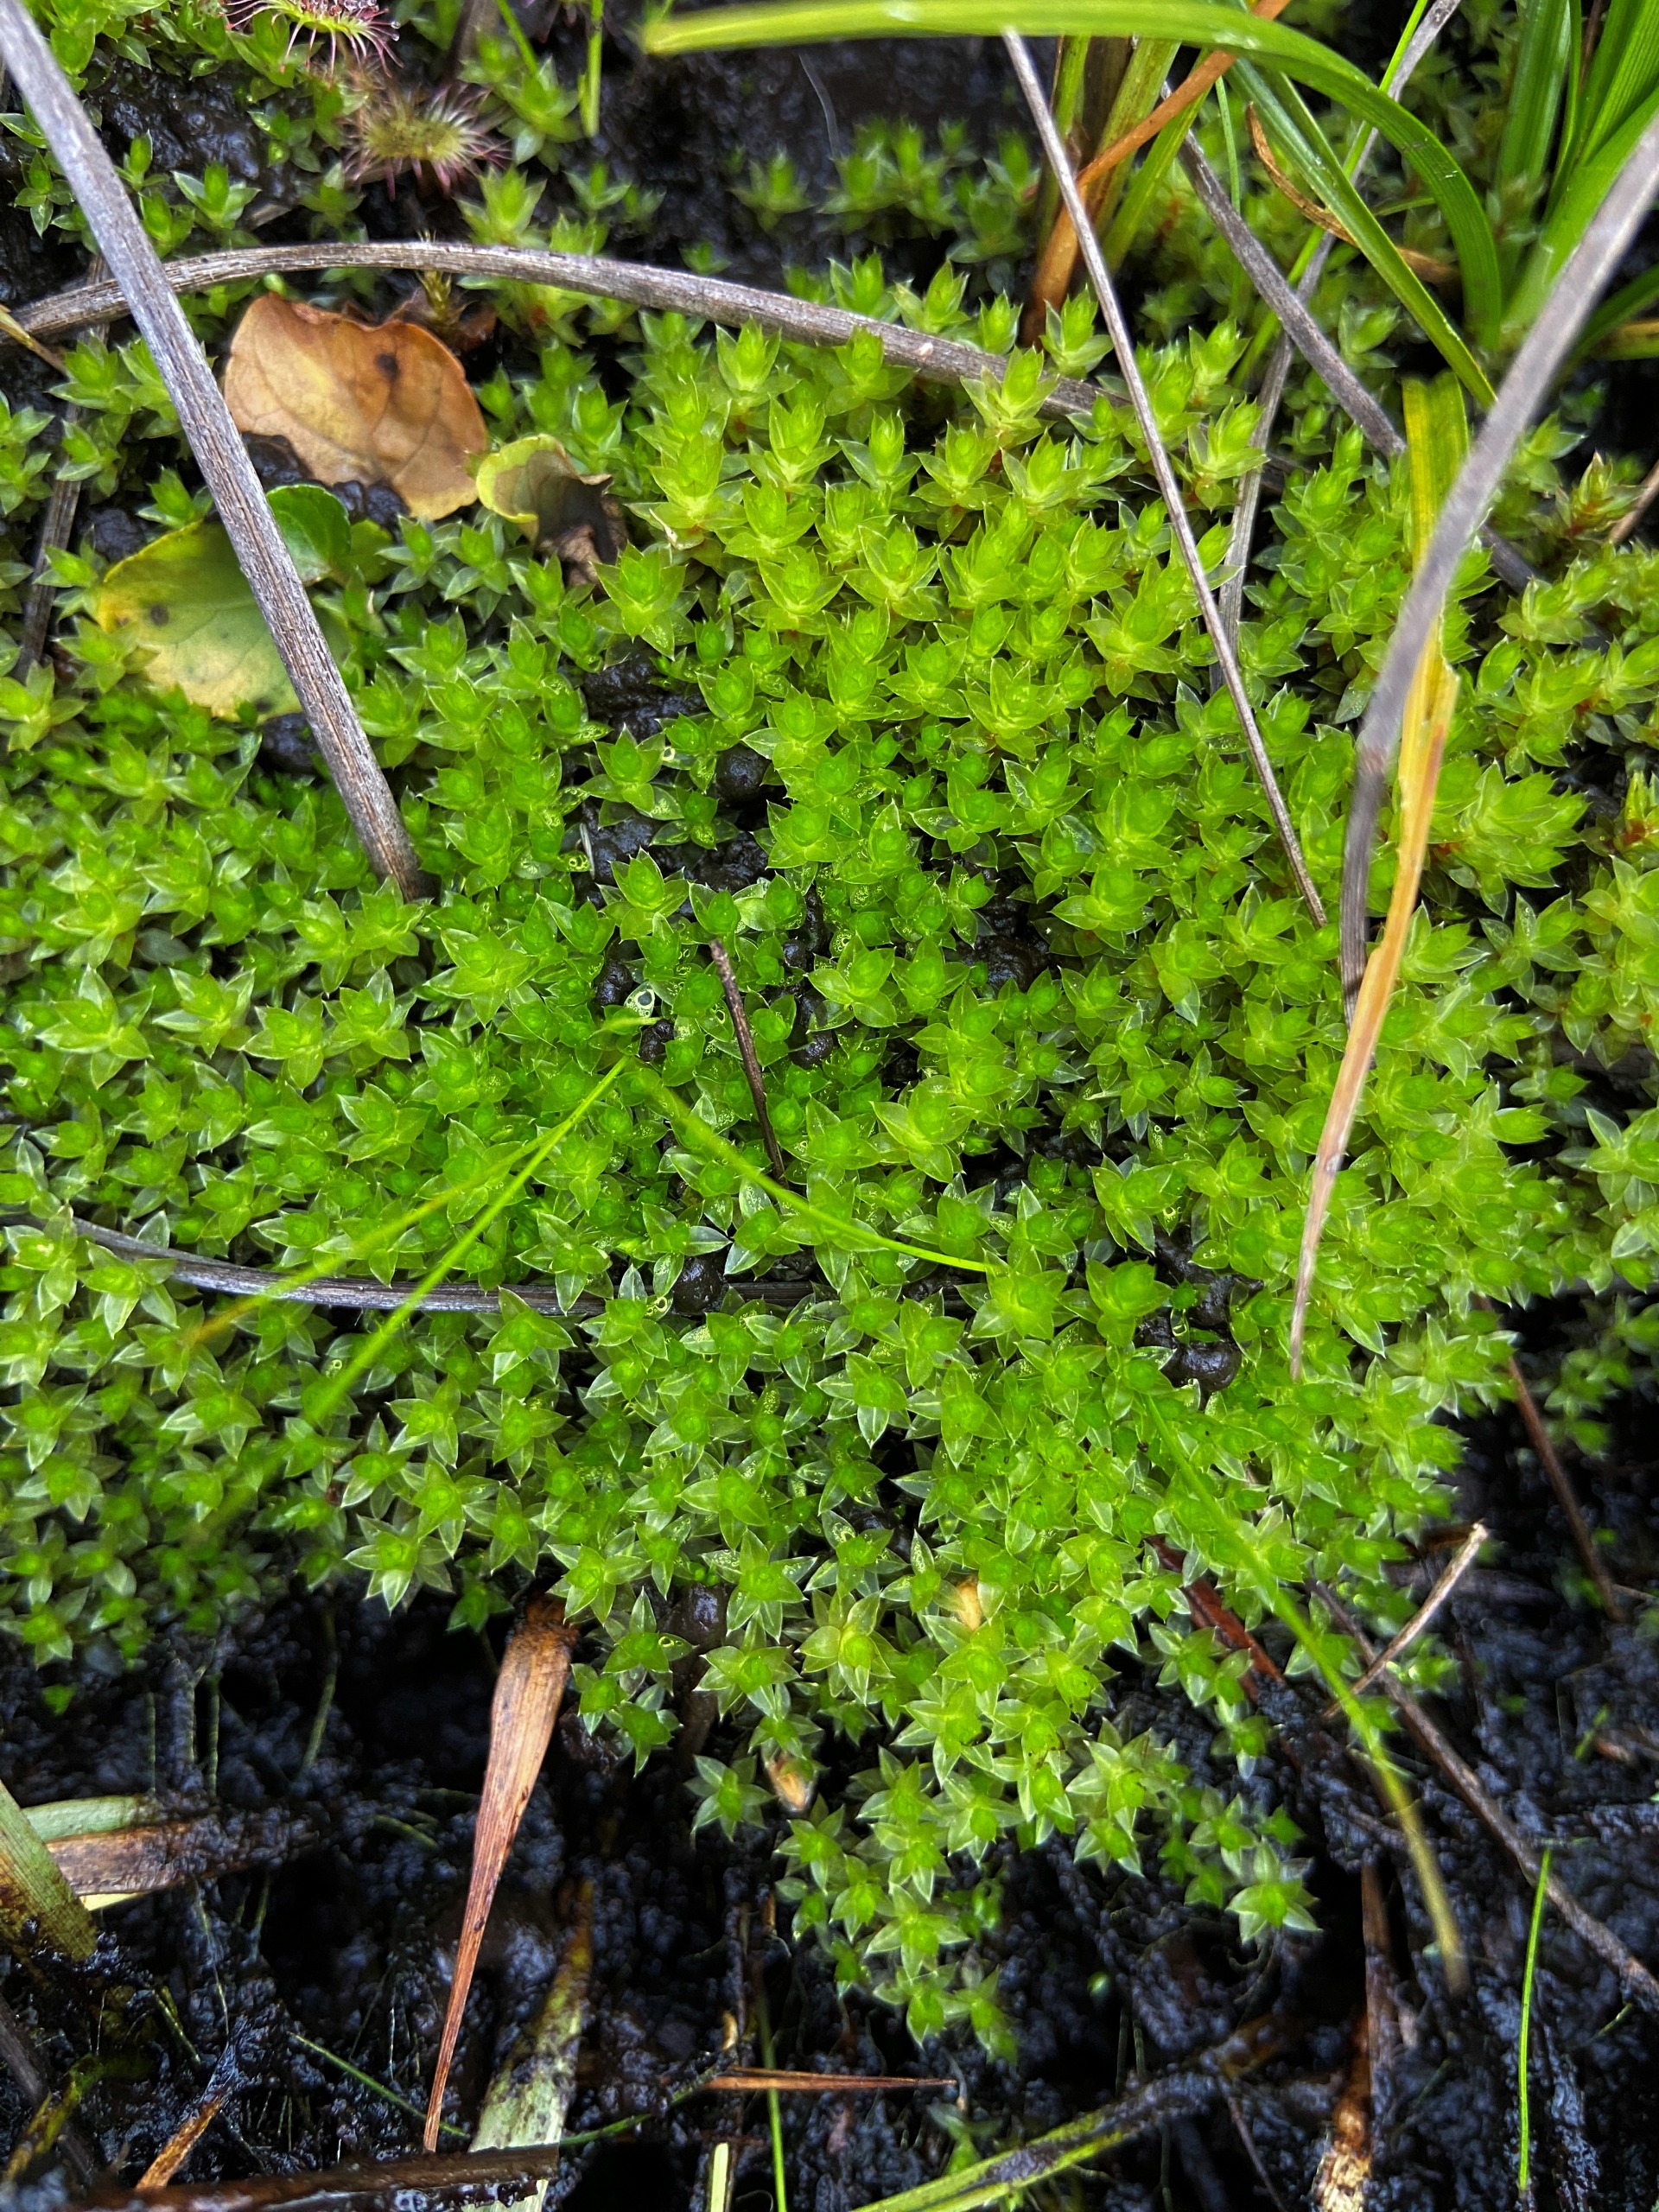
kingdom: Plantae
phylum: Bryophyta
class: Bryopsida
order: Bryales
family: Bryaceae
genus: Bryum
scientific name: Bryum
